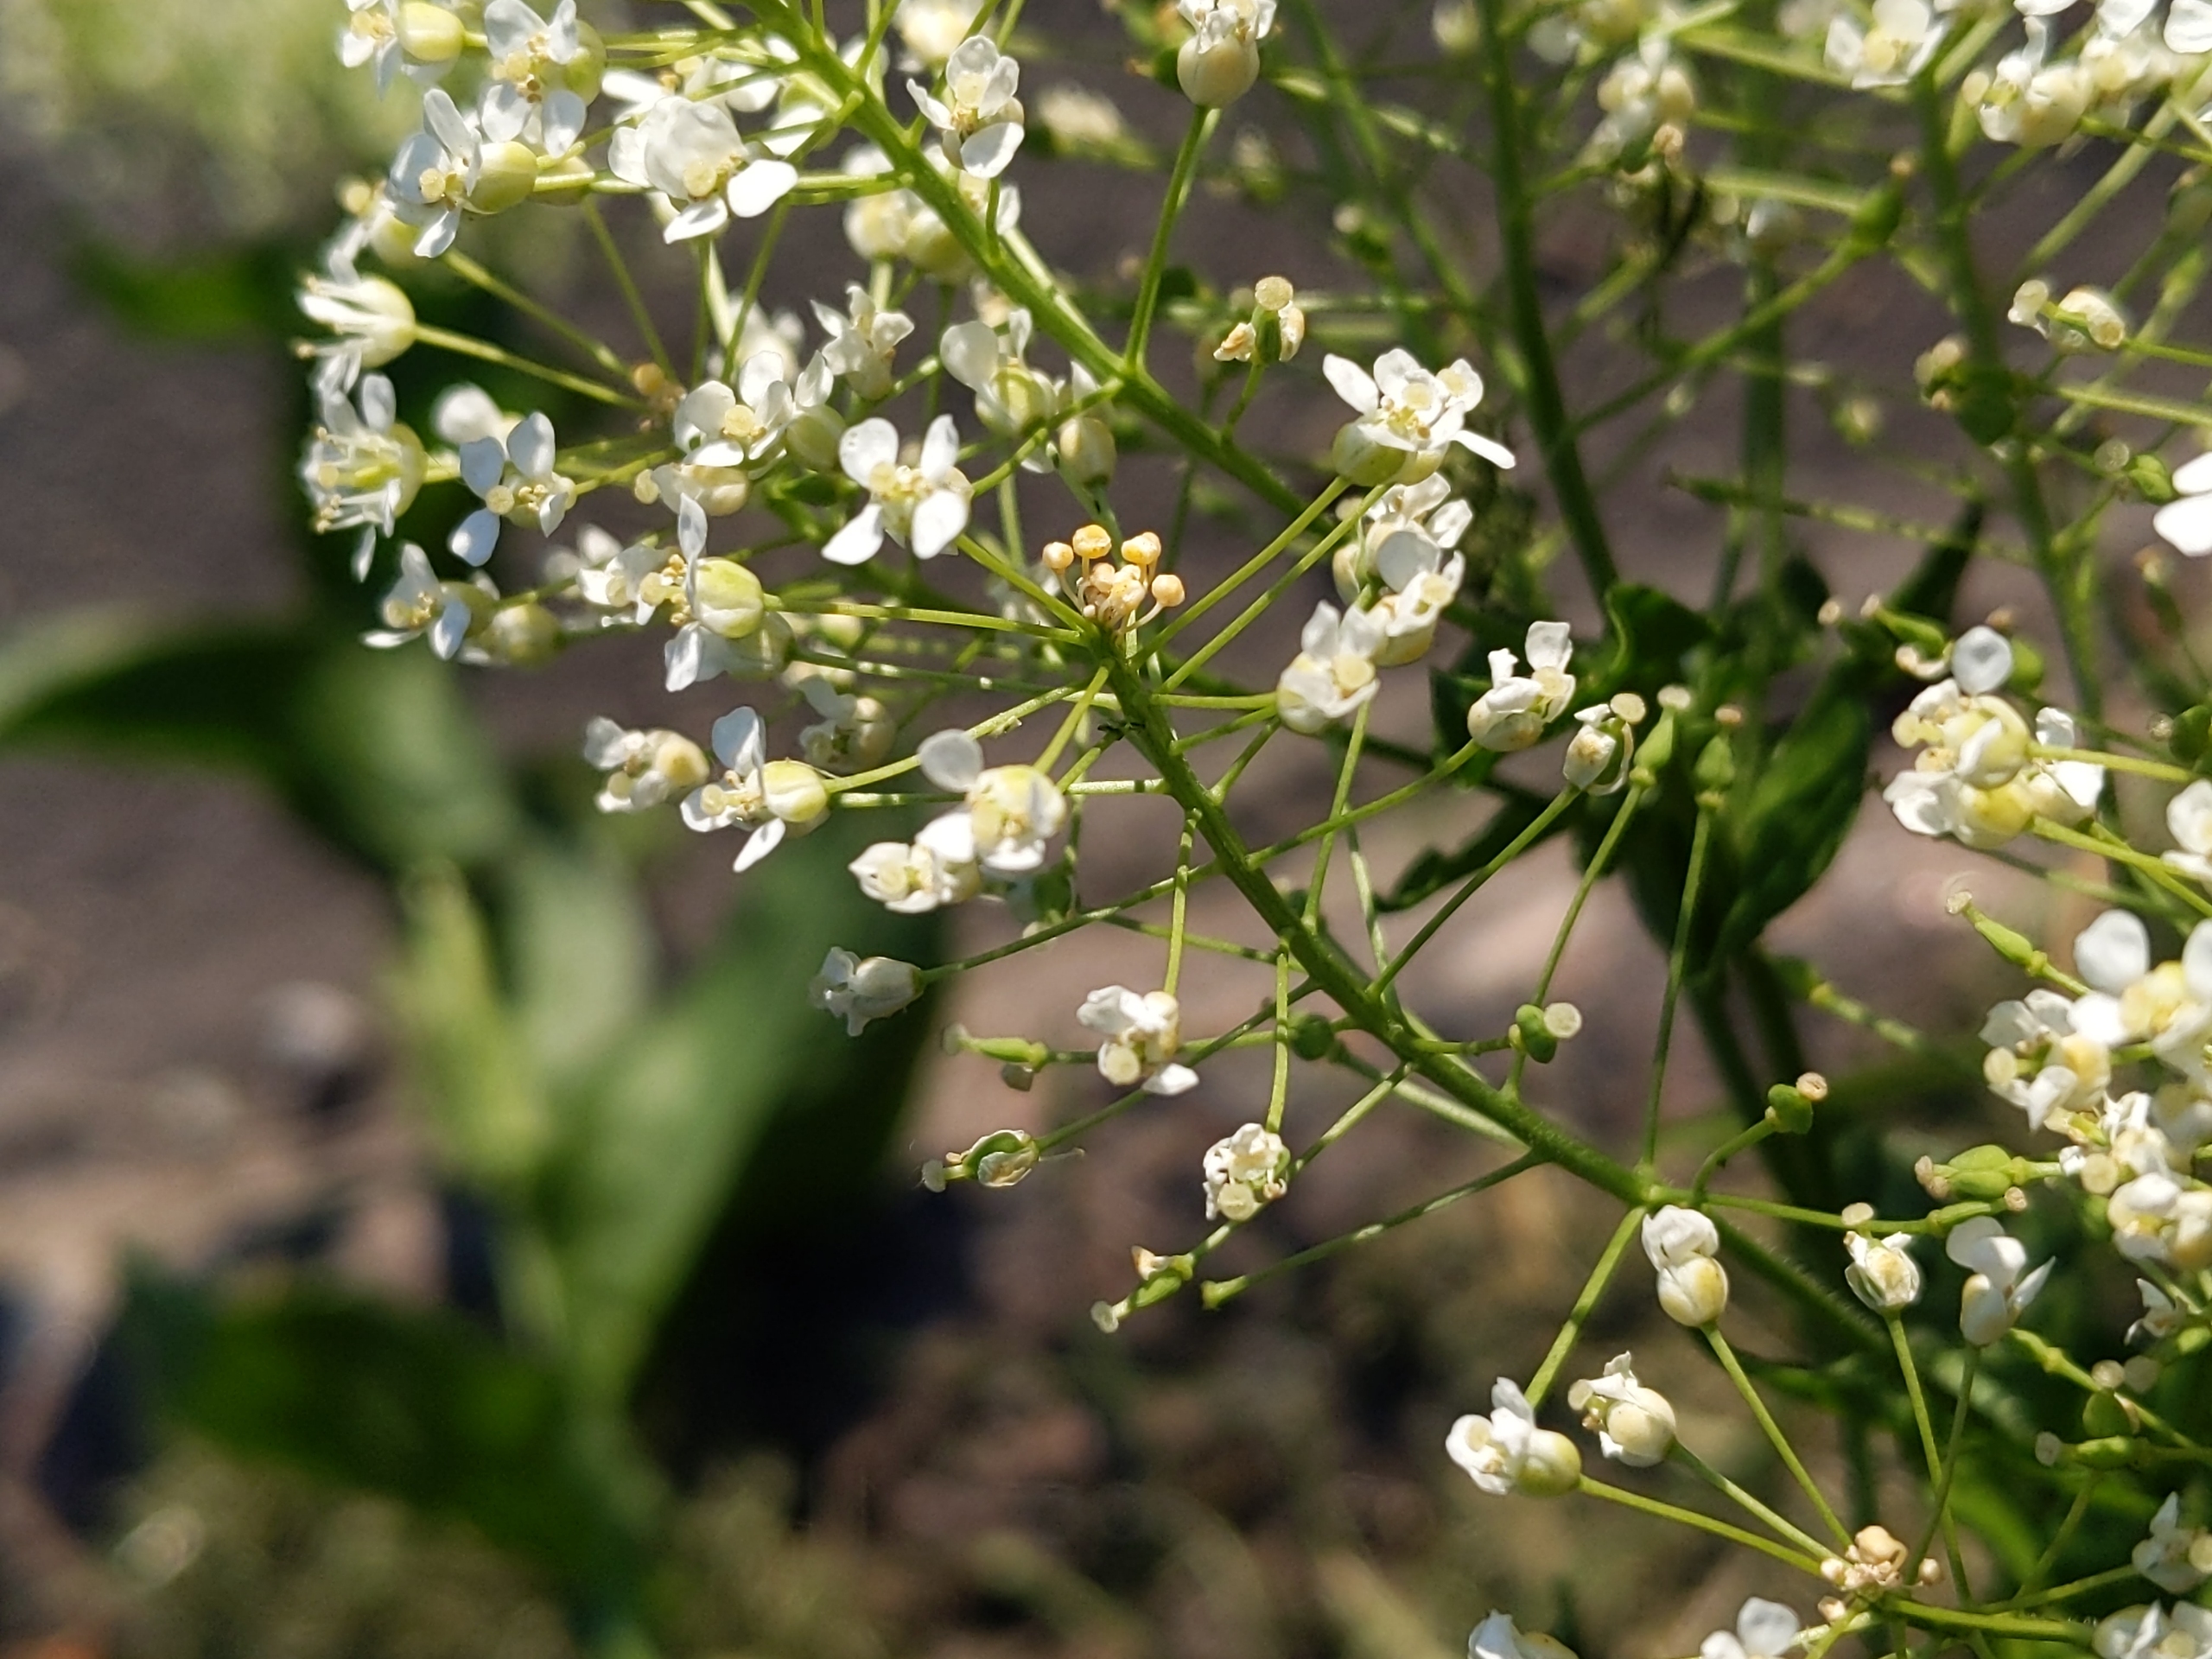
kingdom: Plantae
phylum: Tracheophyta
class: Magnoliopsida
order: Brassicales
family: Brassicaceae
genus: Lepidium
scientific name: Lepidium draba
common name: Hjerte-karse
